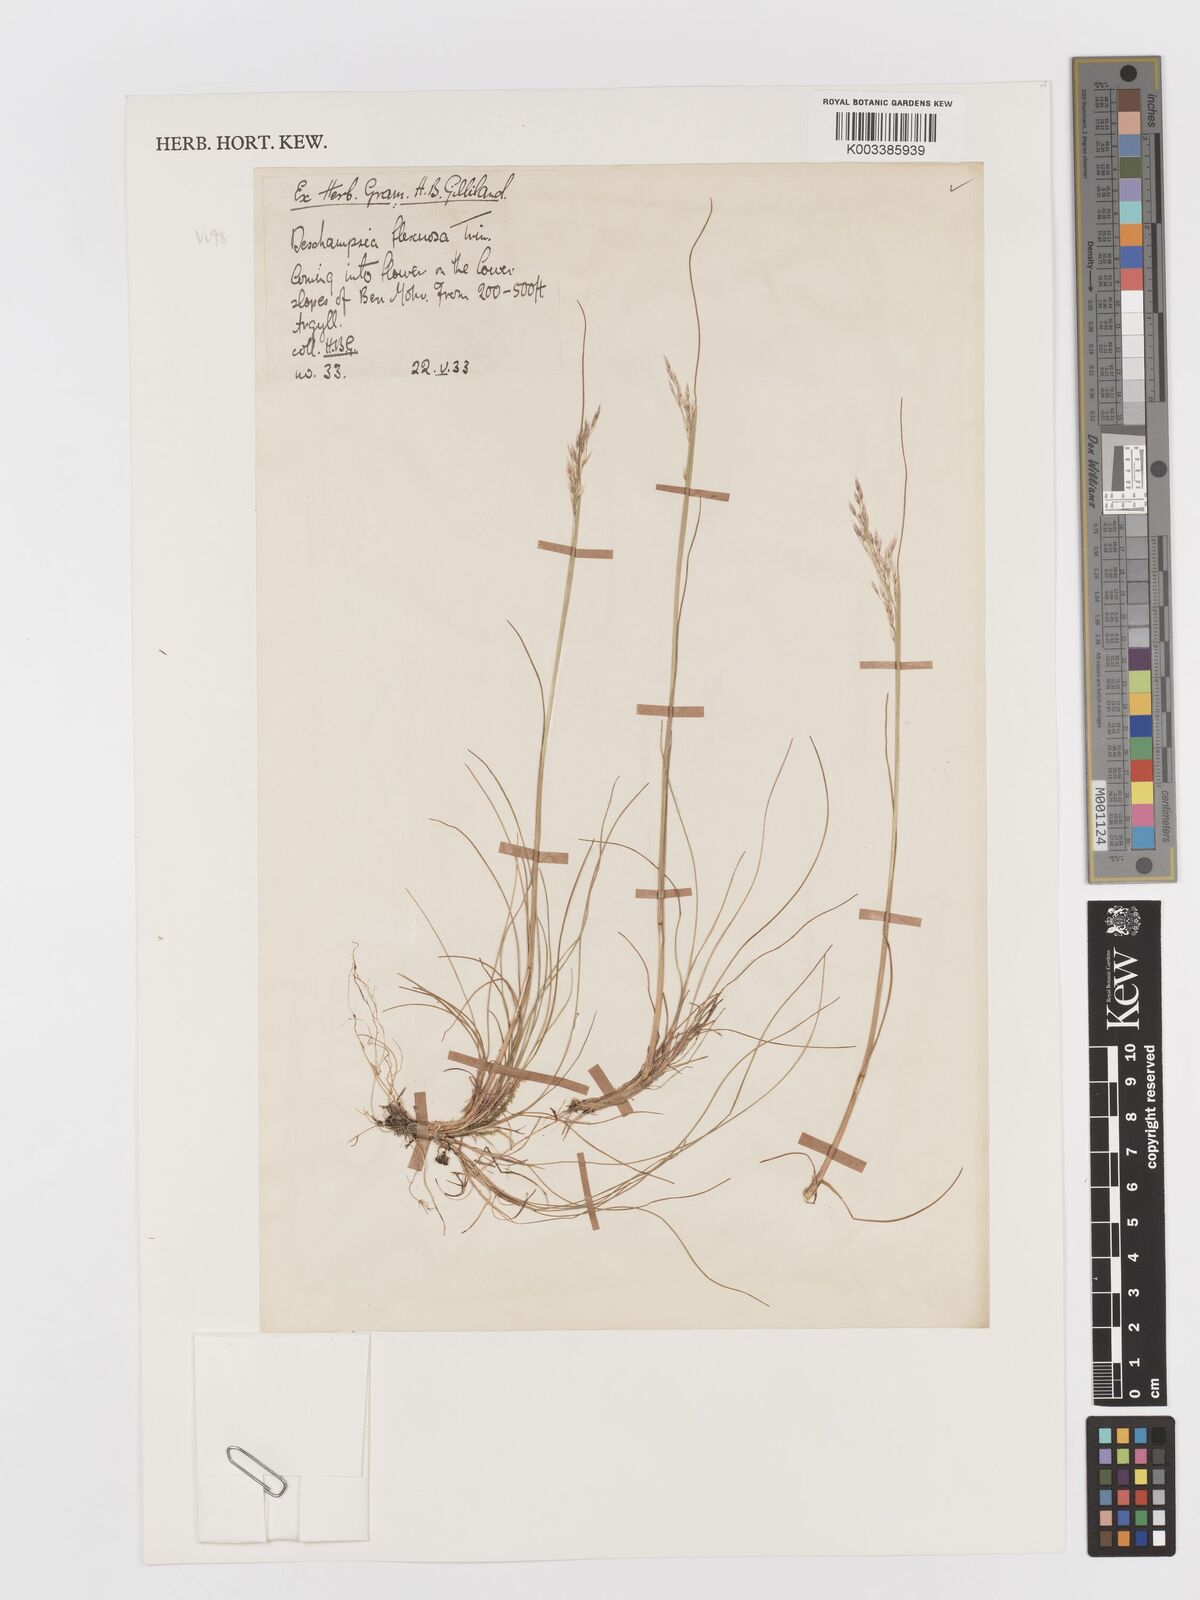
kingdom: Plantae
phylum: Tracheophyta
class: Liliopsida
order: Poales
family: Poaceae
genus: Avenella
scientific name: Avenella flexuosa
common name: Wavy hairgrass
